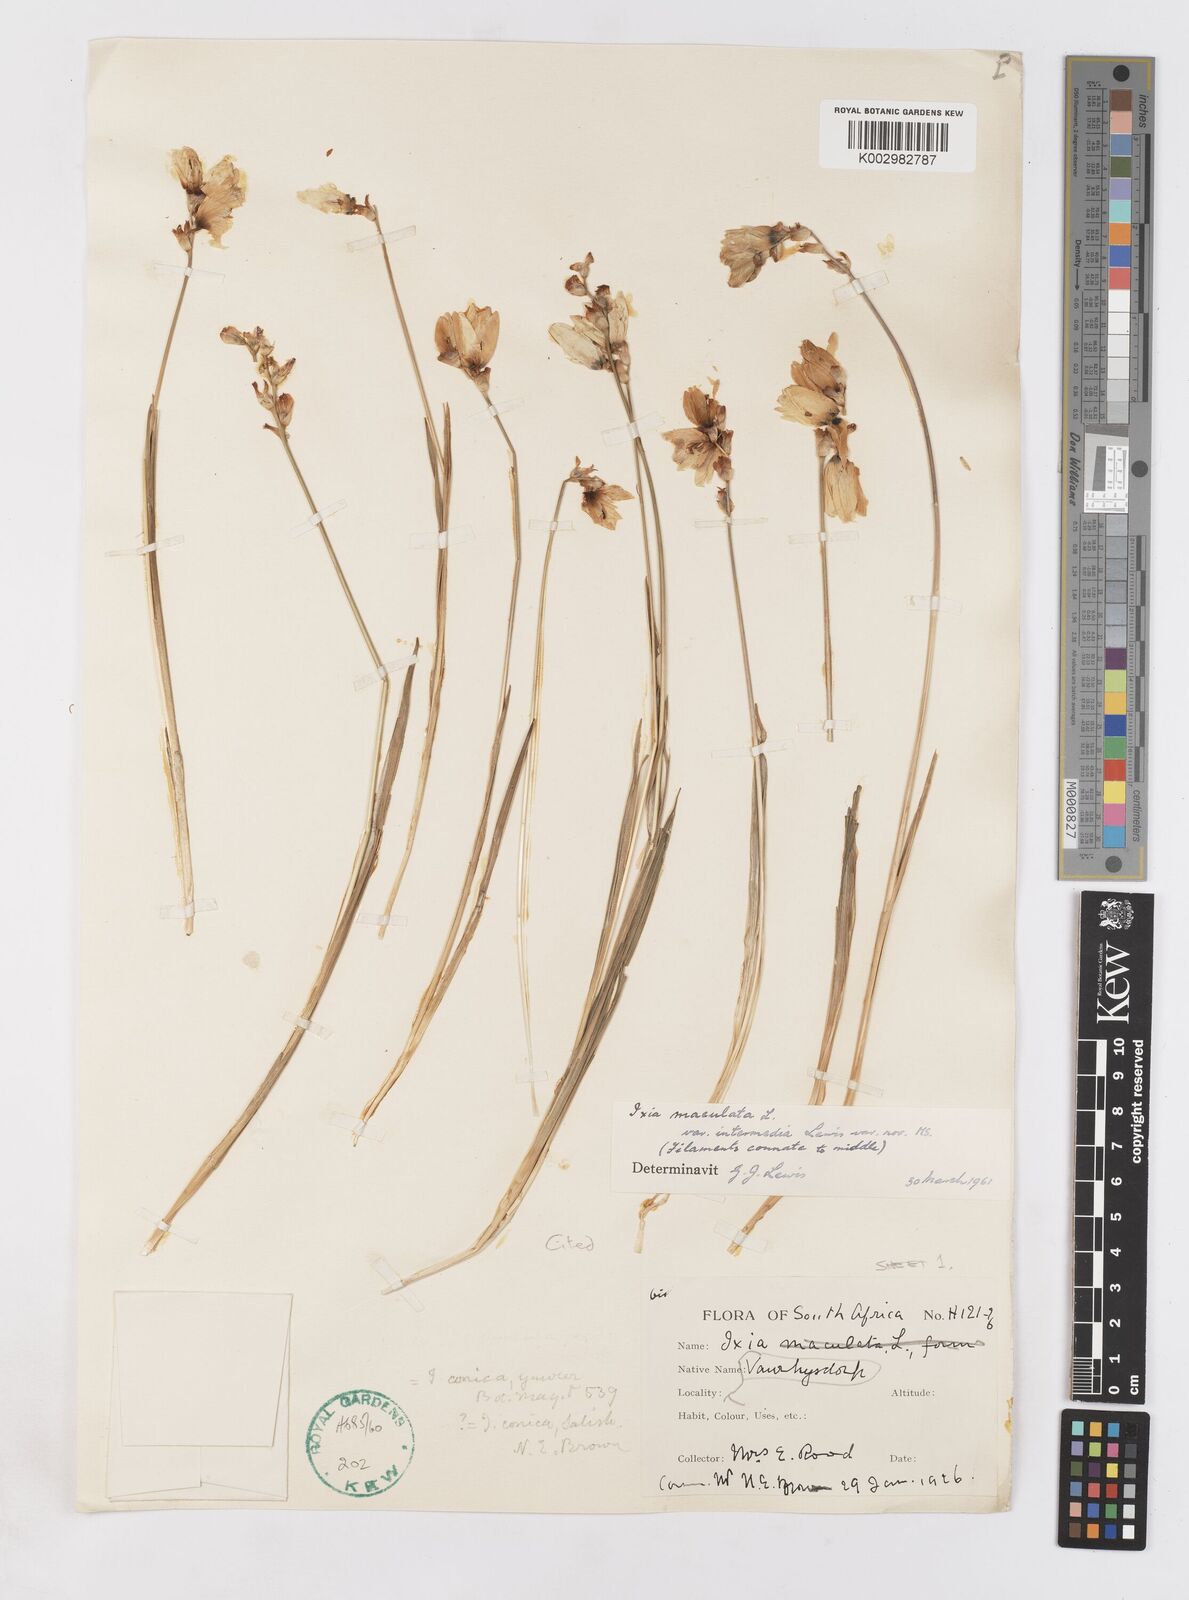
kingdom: Plantae
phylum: Tracheophyta
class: Liliopsida
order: Asparagales
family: Iridaceae
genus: Ixia
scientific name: Ixia maculata
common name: Spotted african cornlily
